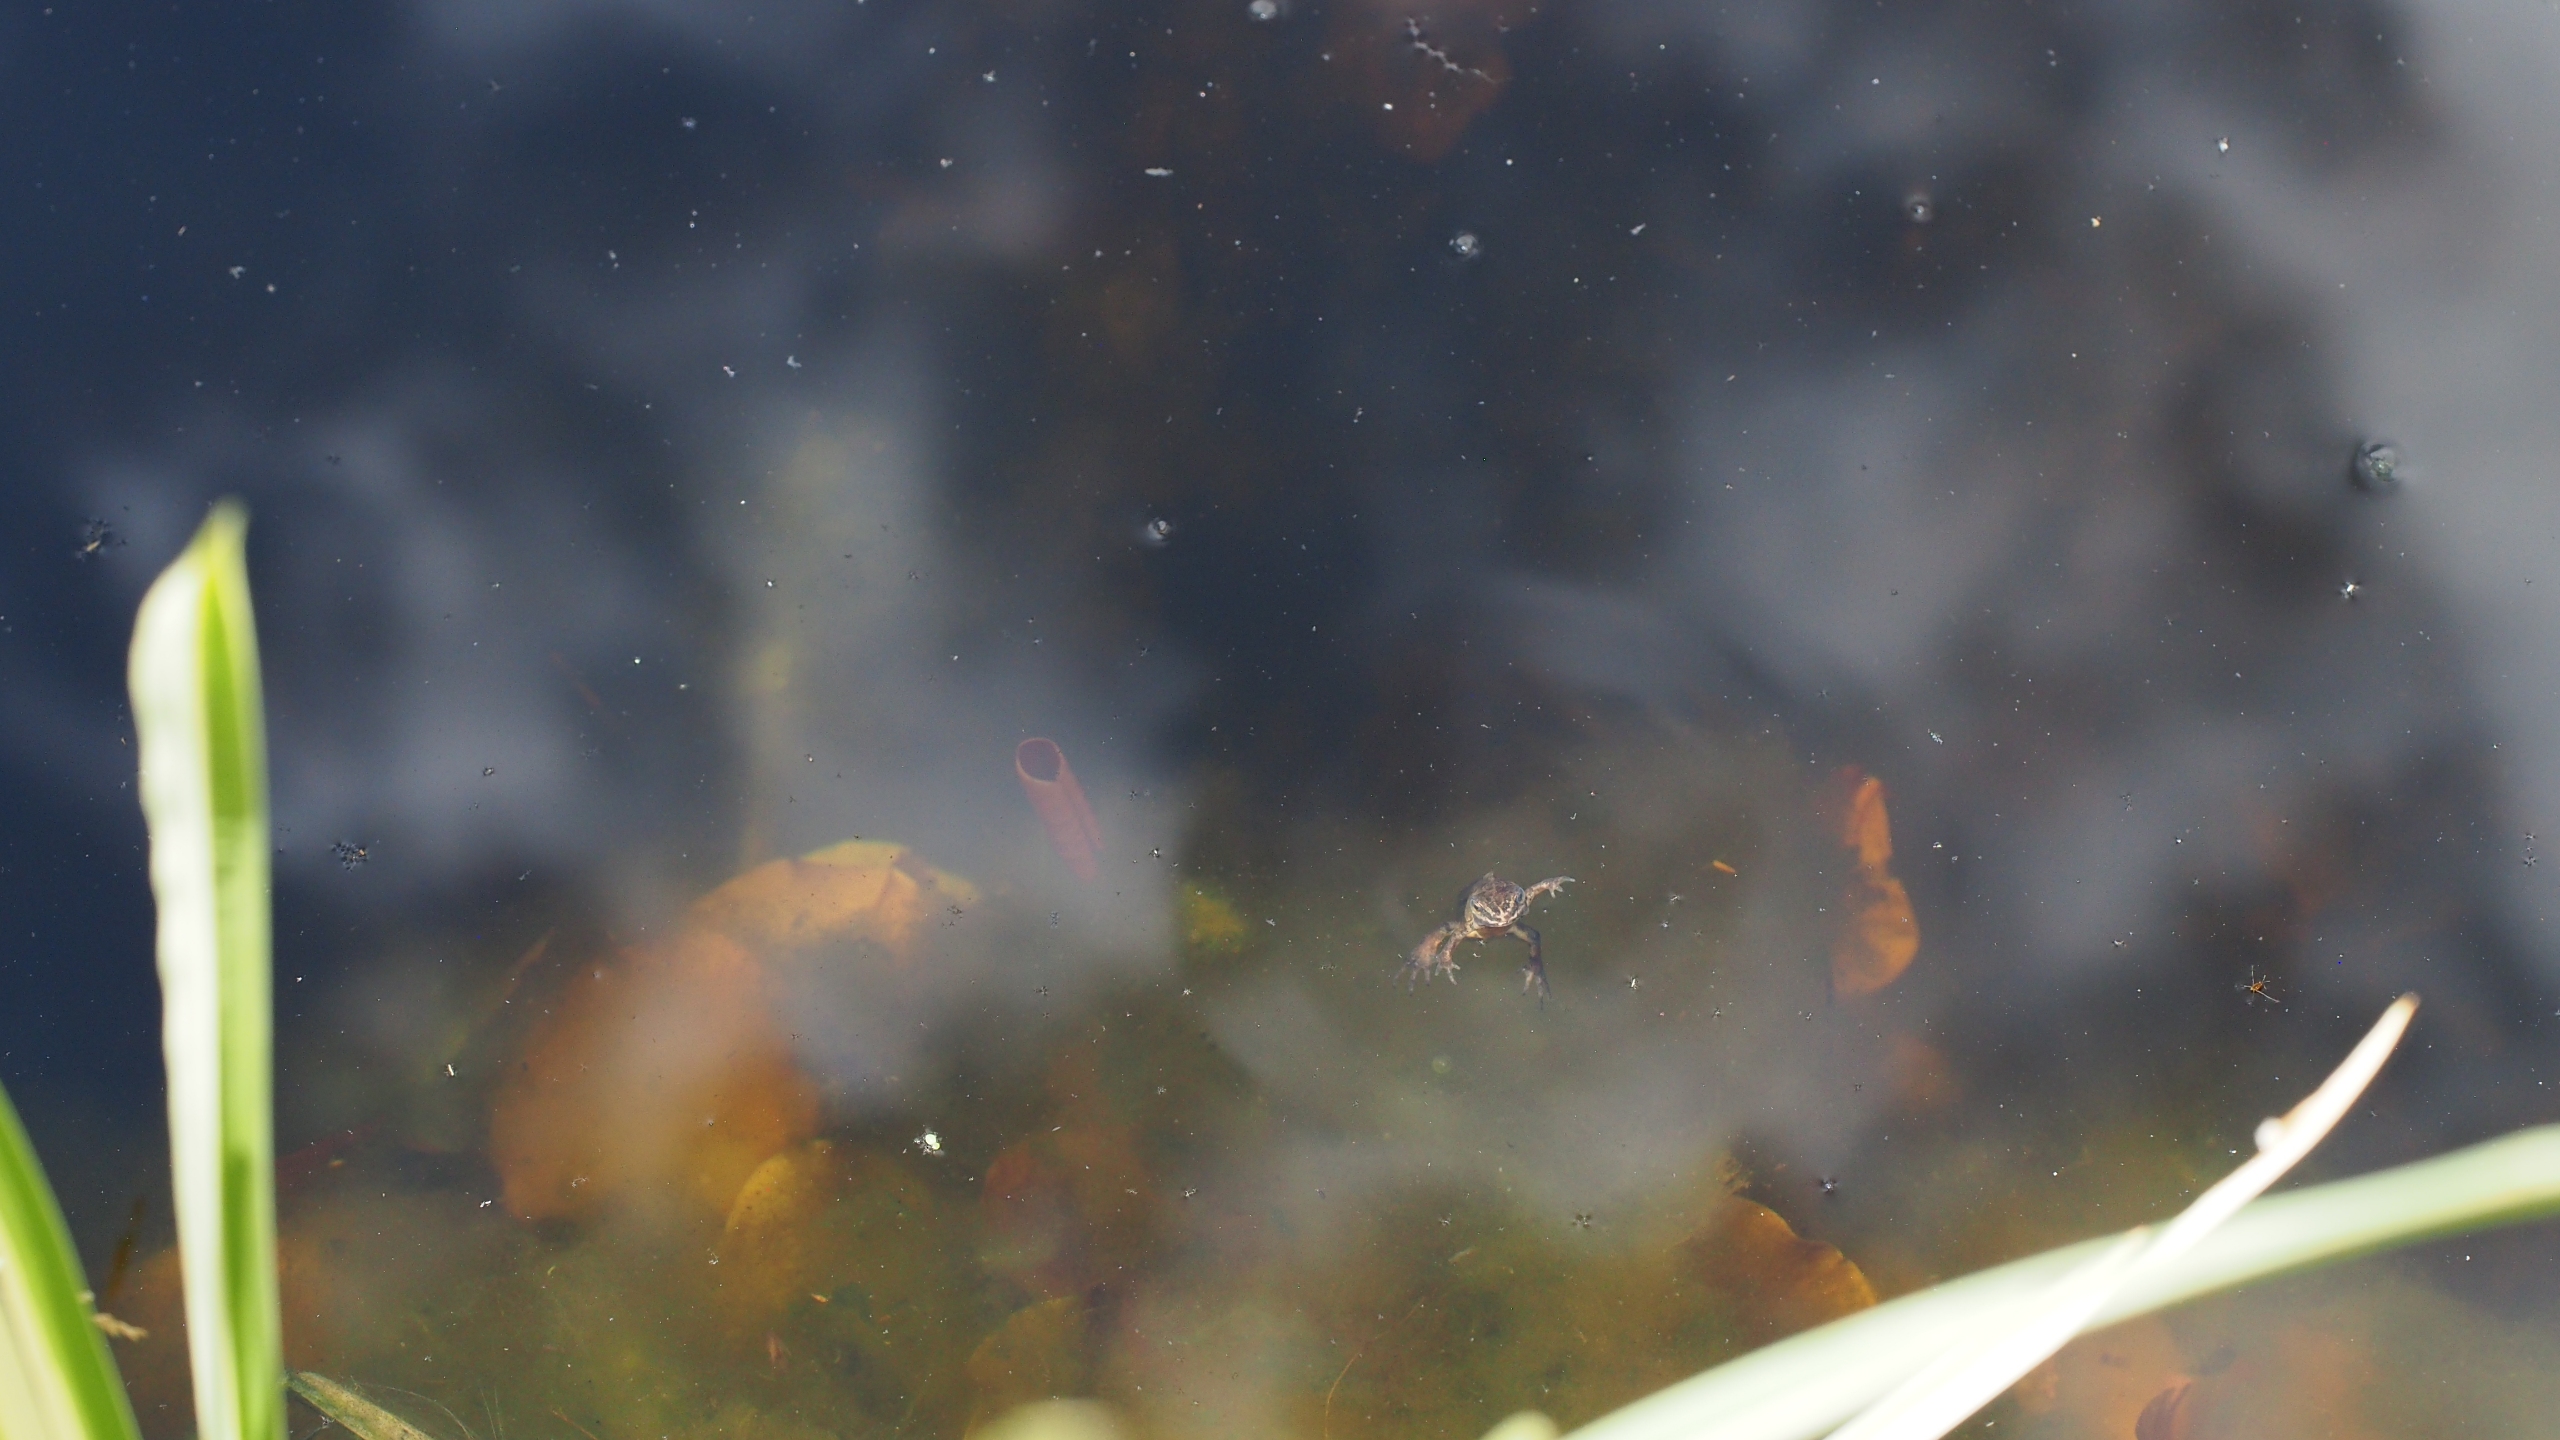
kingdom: Animalia
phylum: Chordata
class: Amphibia
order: Caudata
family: Salamandridae
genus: Lissotriton
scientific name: Lissotriton vulgaris
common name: Lille vandsalamander
